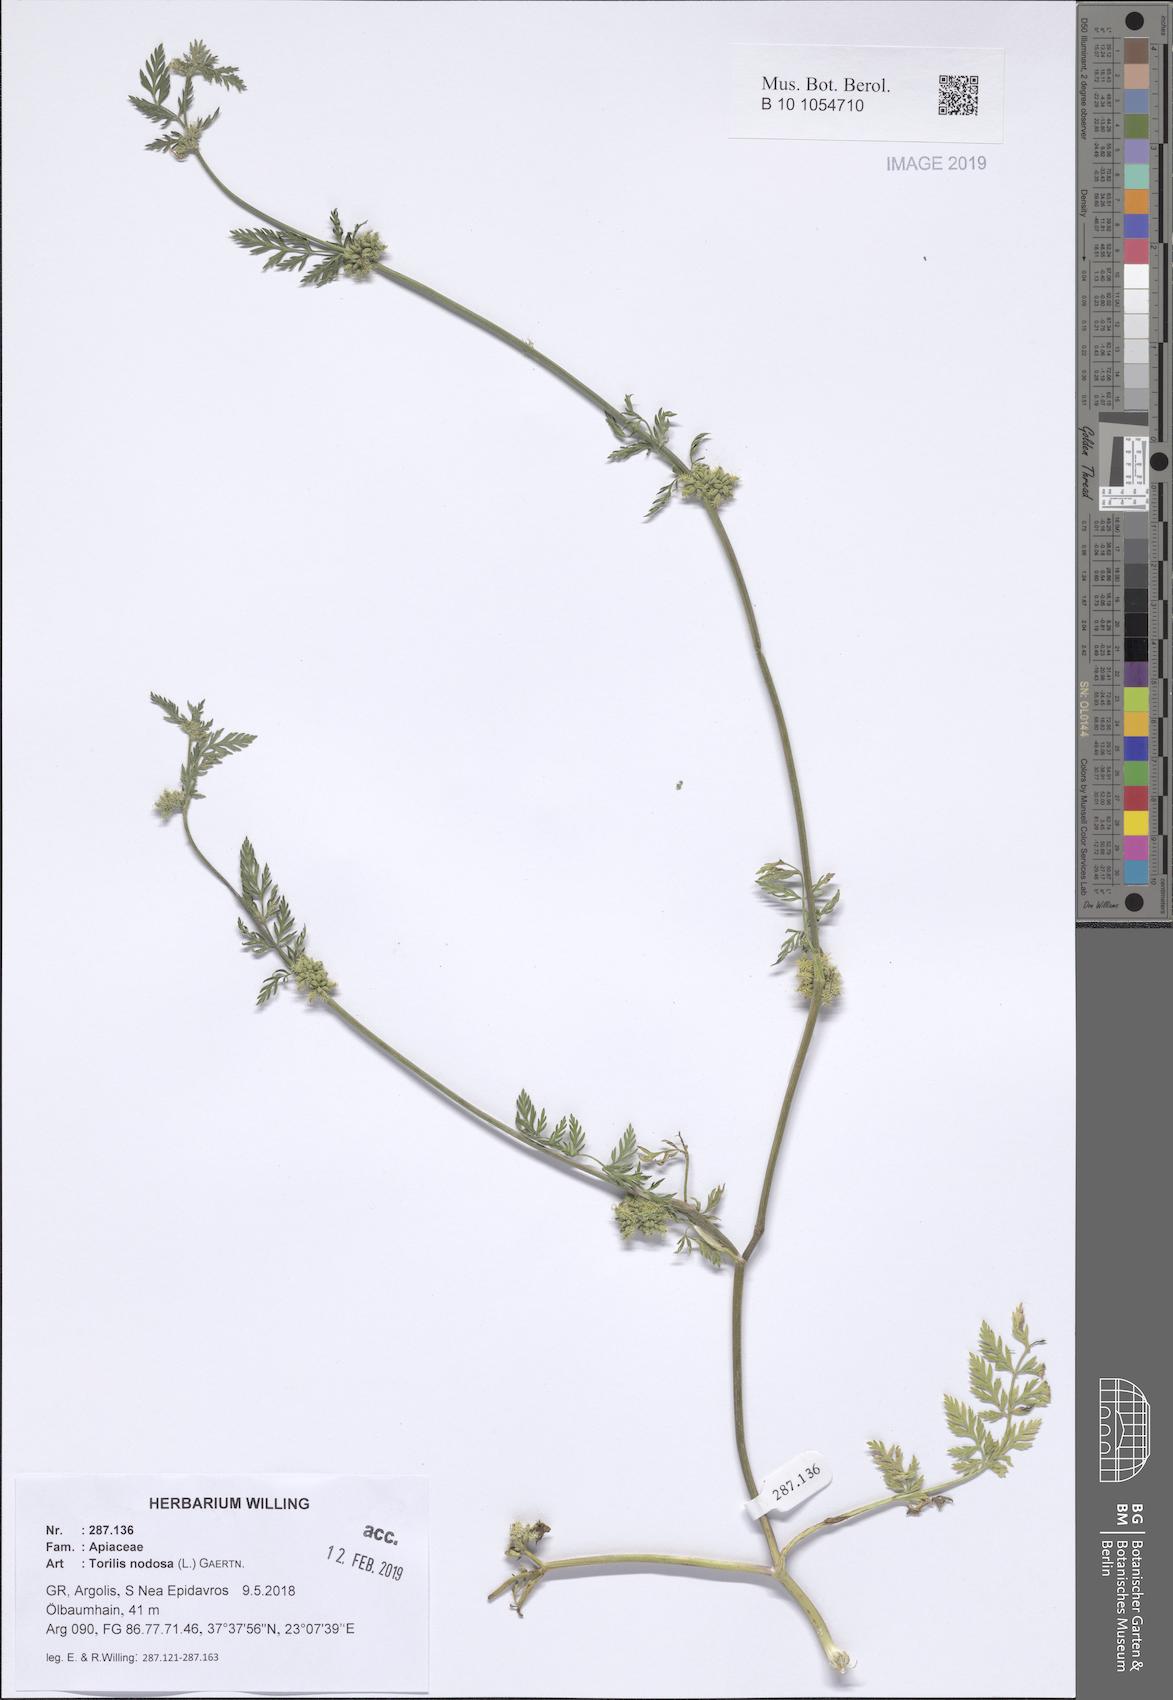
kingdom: Plantae
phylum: Tracheophyta
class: Magnoliopsida
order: Apiales
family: Apiaceae
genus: Torilis
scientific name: Torilis nodosa
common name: Knotted hedge-parsley
